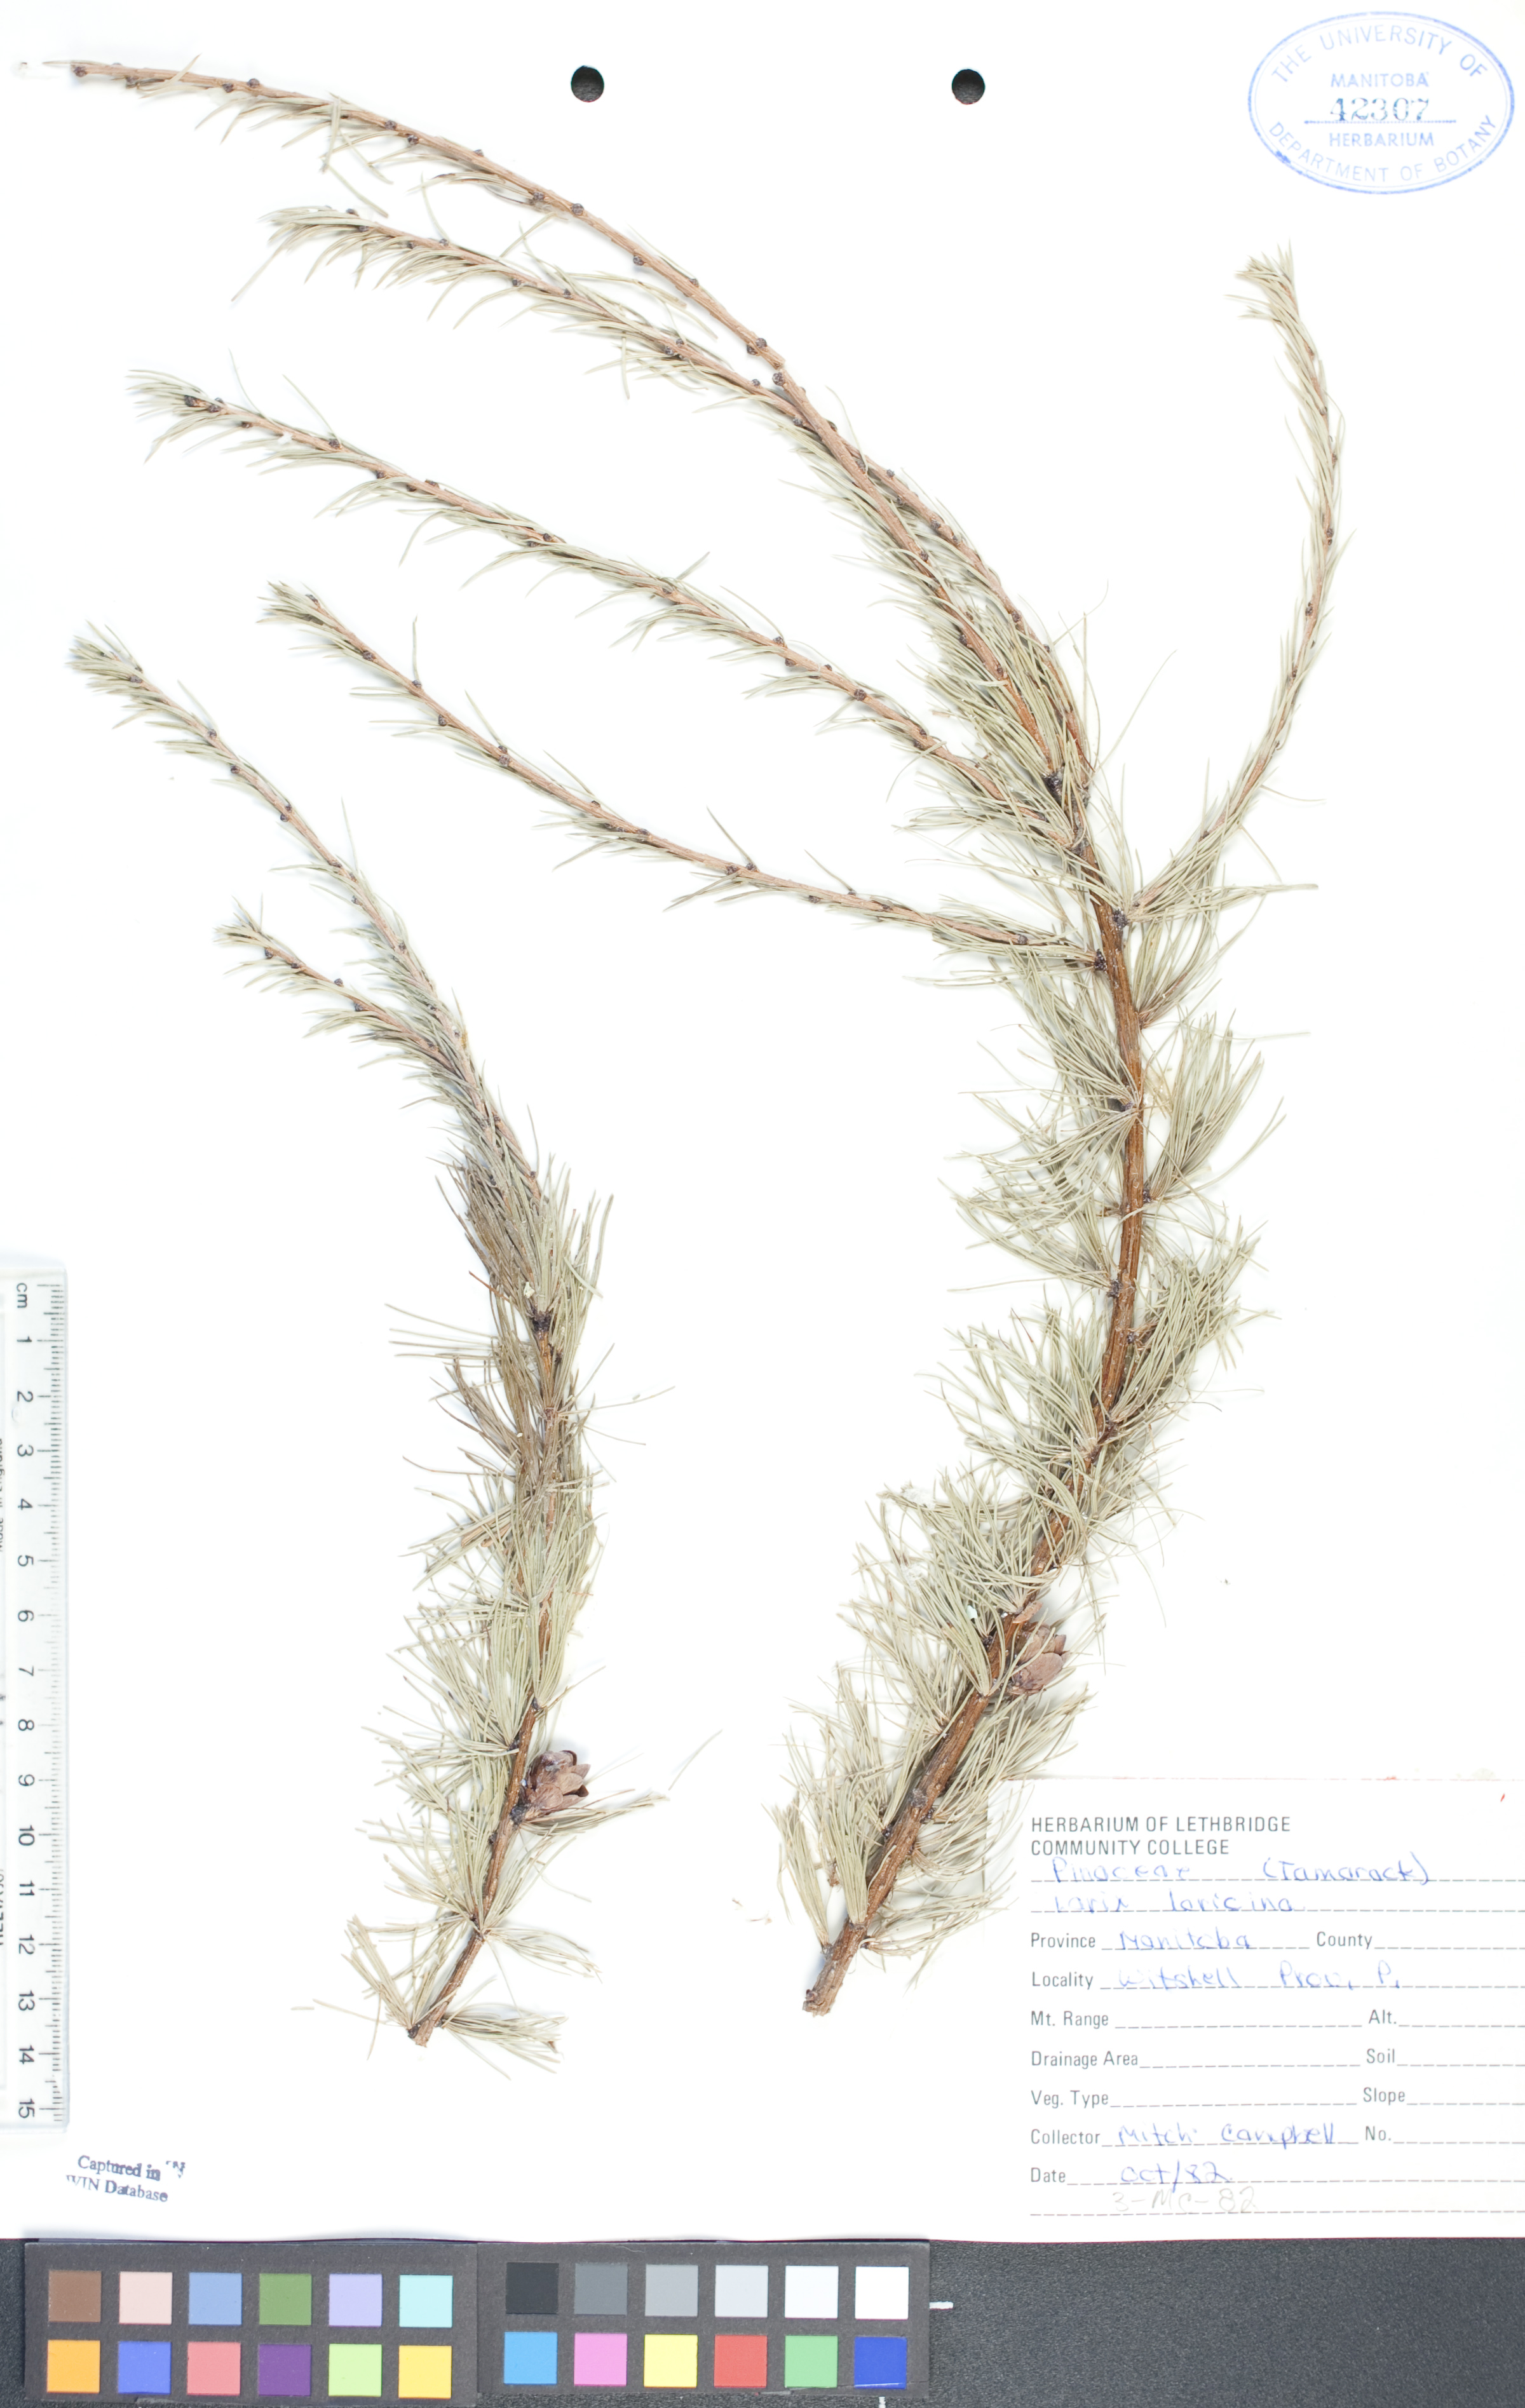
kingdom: Plantae
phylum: Tracheophyta
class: Pinopsida
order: Pinales
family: Pinaceae
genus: Larix
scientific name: Larix laricina
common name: American larch
